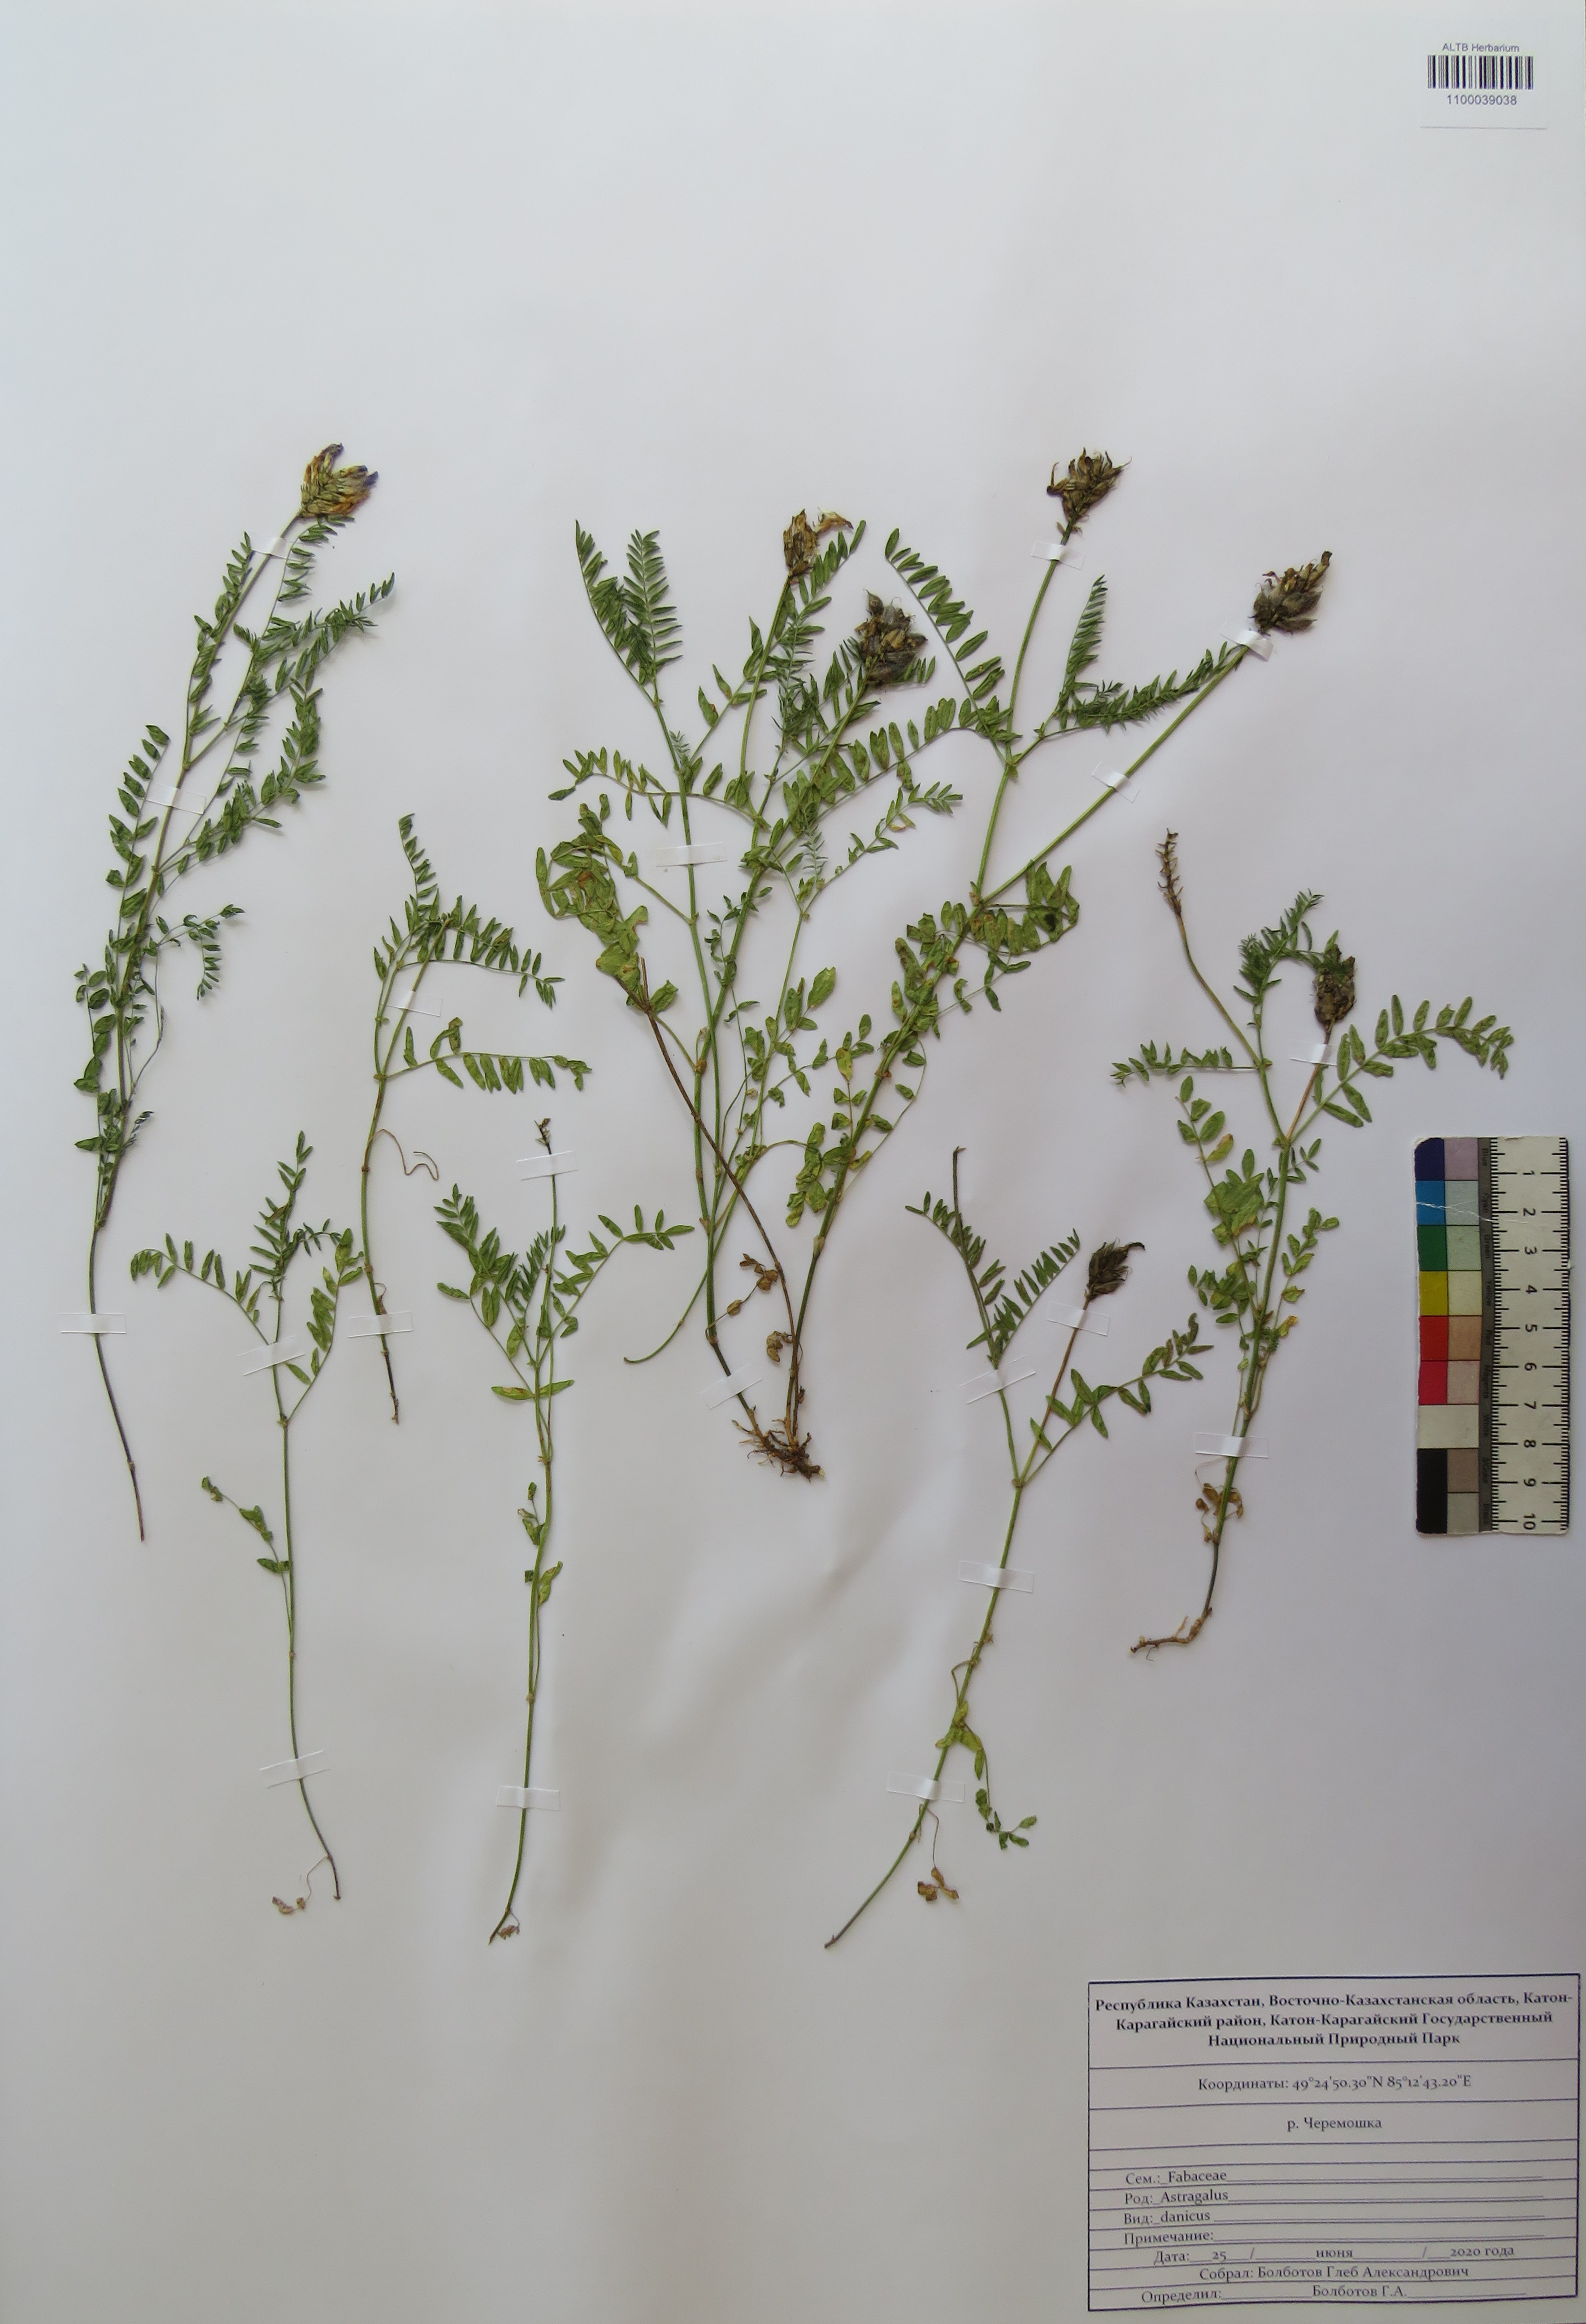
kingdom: Plantae
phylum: Tracheophyta
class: Magnoliopsida
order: Fabales
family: Fabaceae
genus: Astragalus
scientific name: Astragalus danicus
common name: Purple milk-vetch
